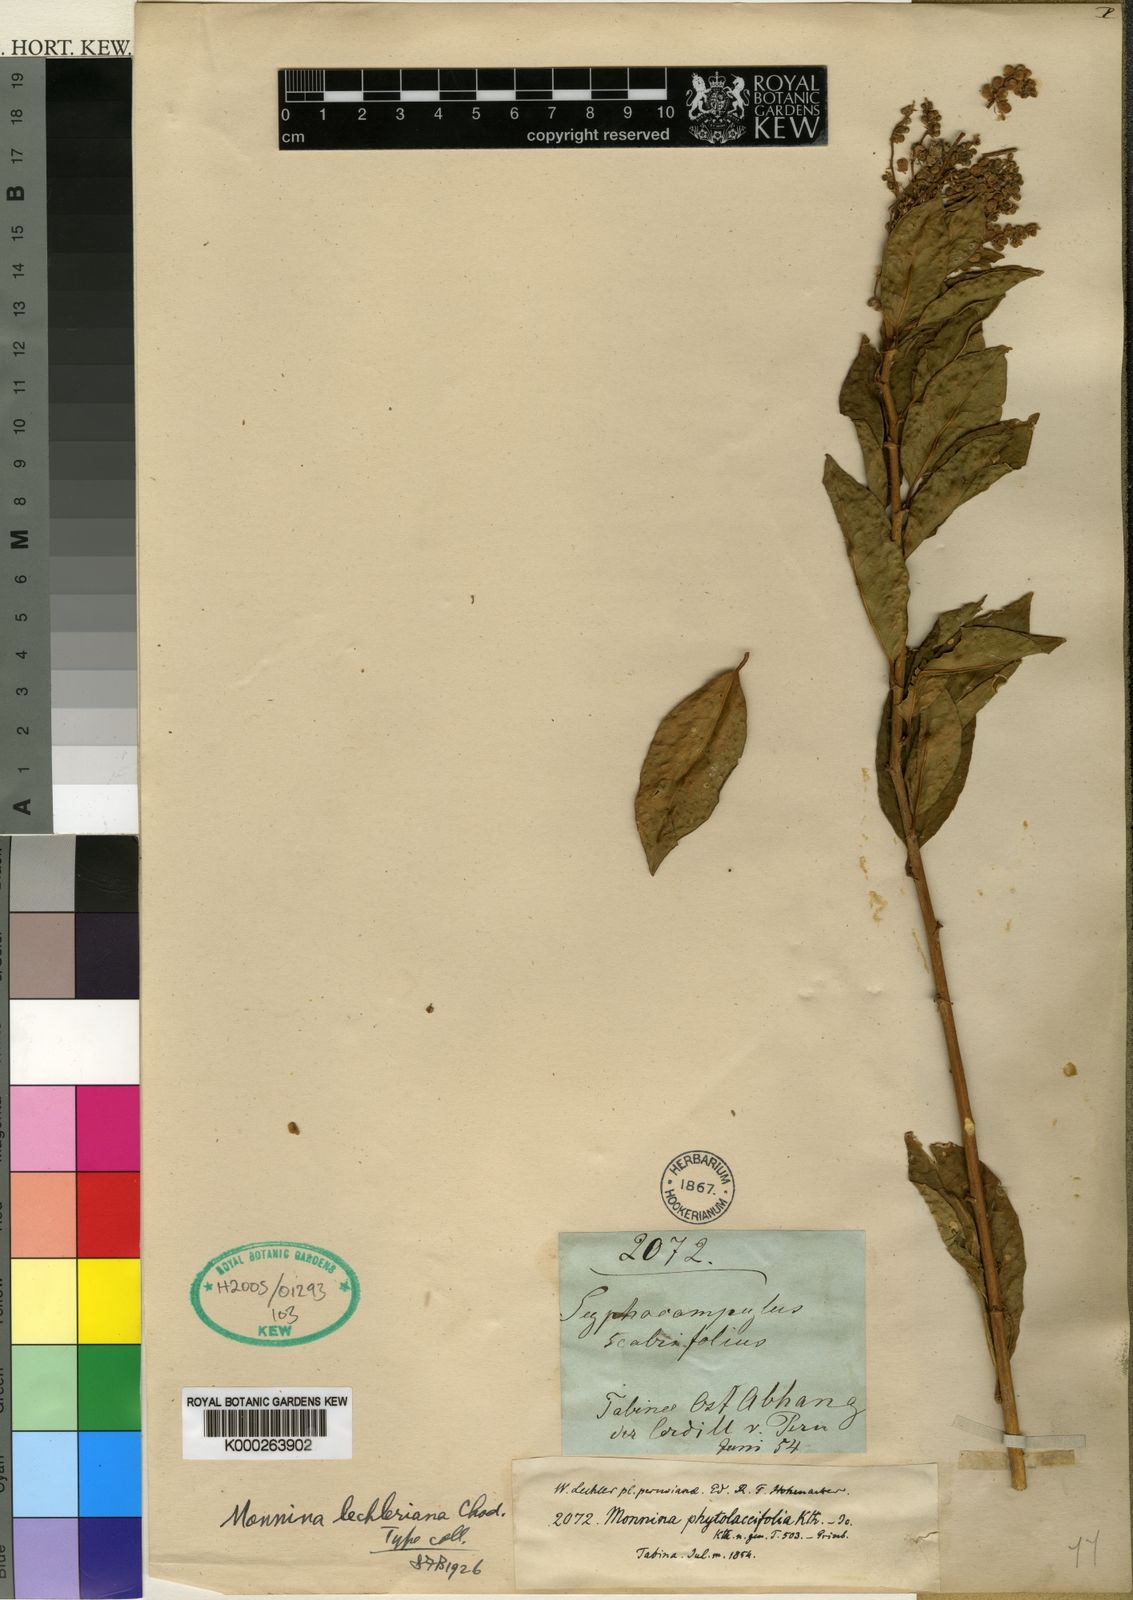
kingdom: Plantae
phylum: Tracheophyta
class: Magnoliopsida
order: Fabales
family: Polygalaceae
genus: Monnina
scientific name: Monnina lechleriana
